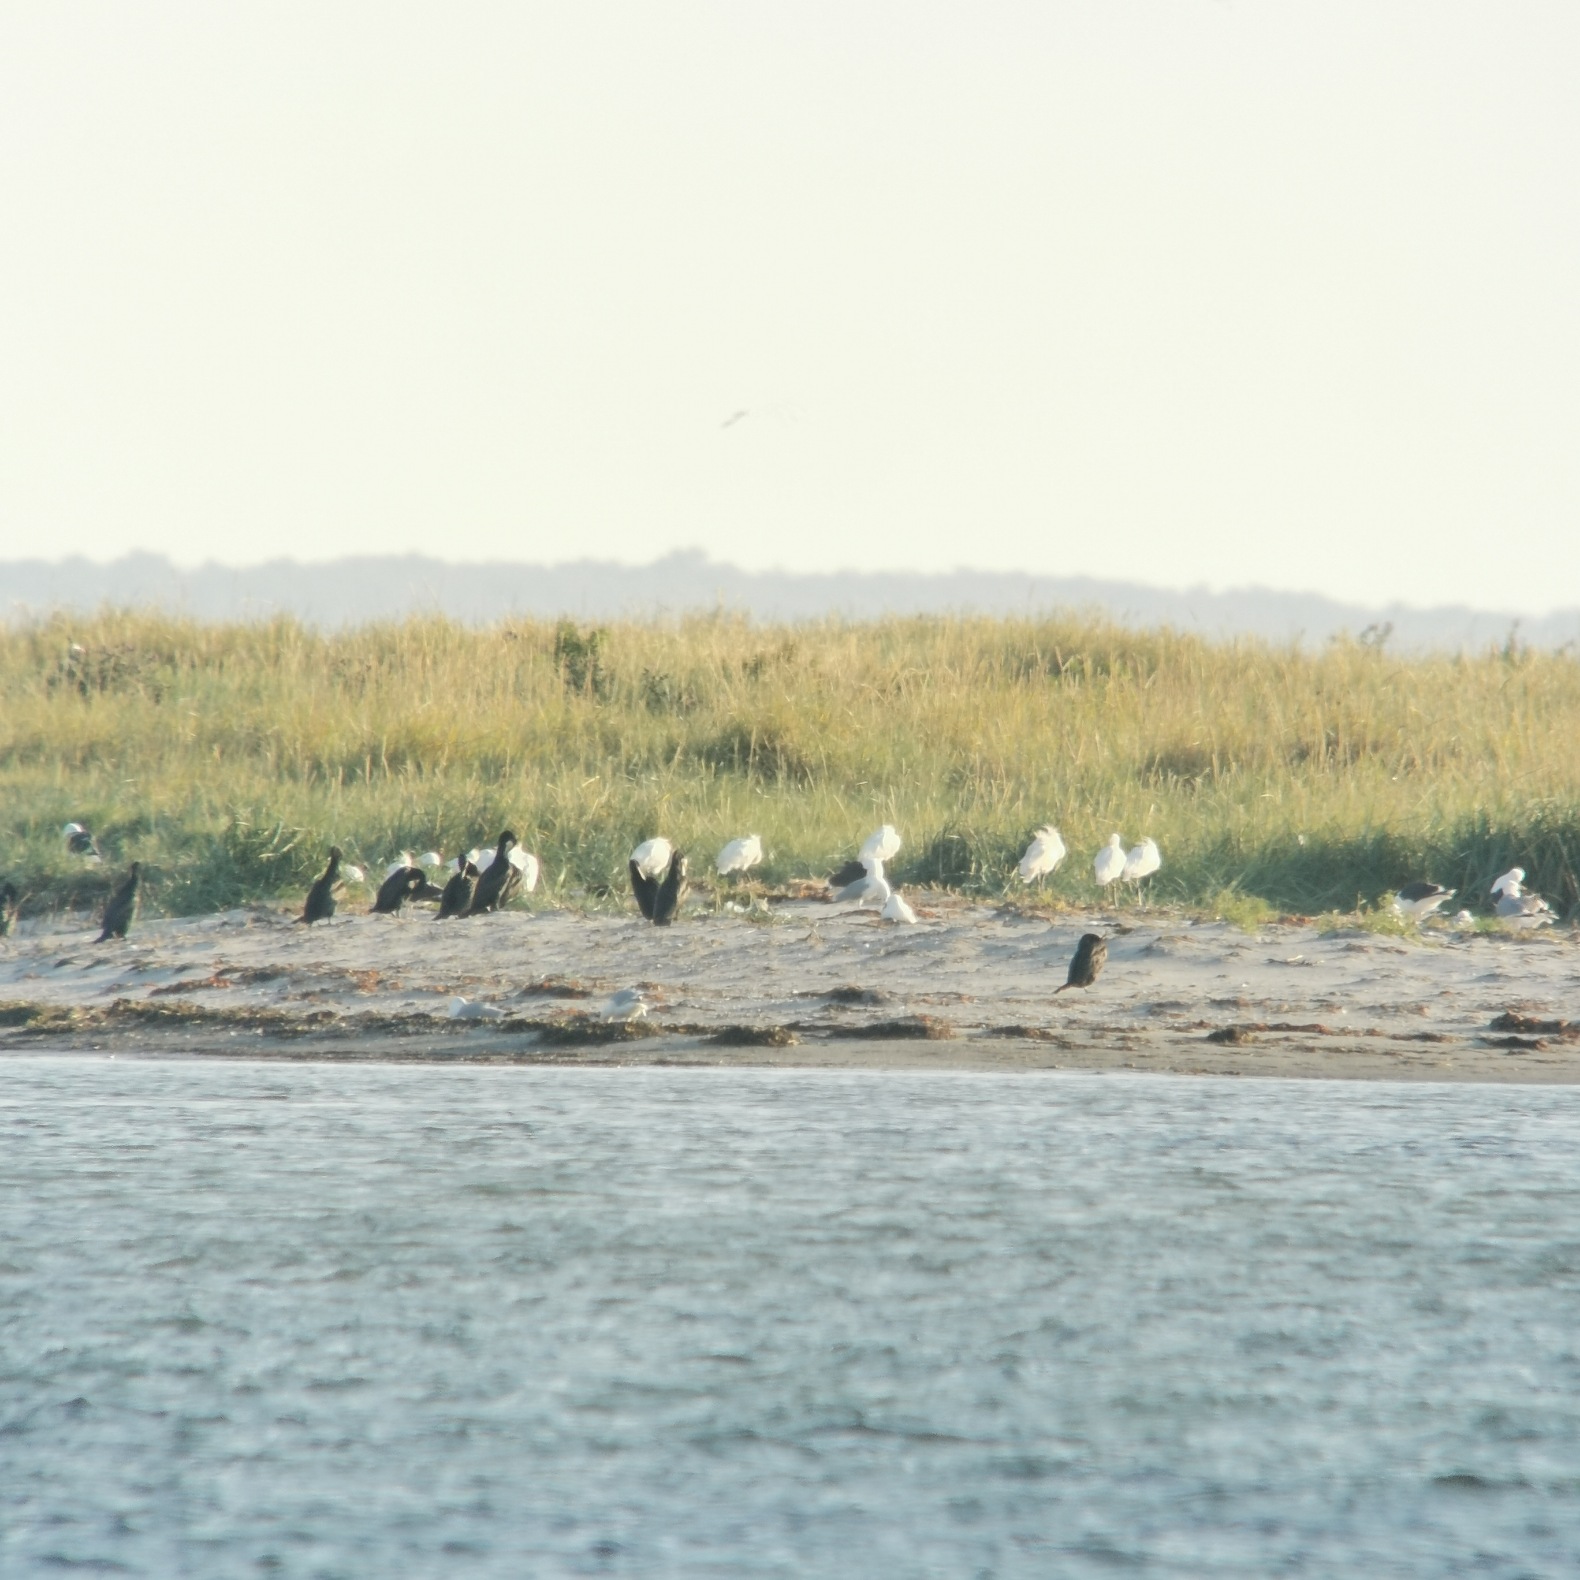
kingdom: Animalia
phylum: Chordata
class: Aves
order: Pelecaniformes
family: Threskiornithidae
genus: Platalea
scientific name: Platalea leucorodia
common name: Skestork
